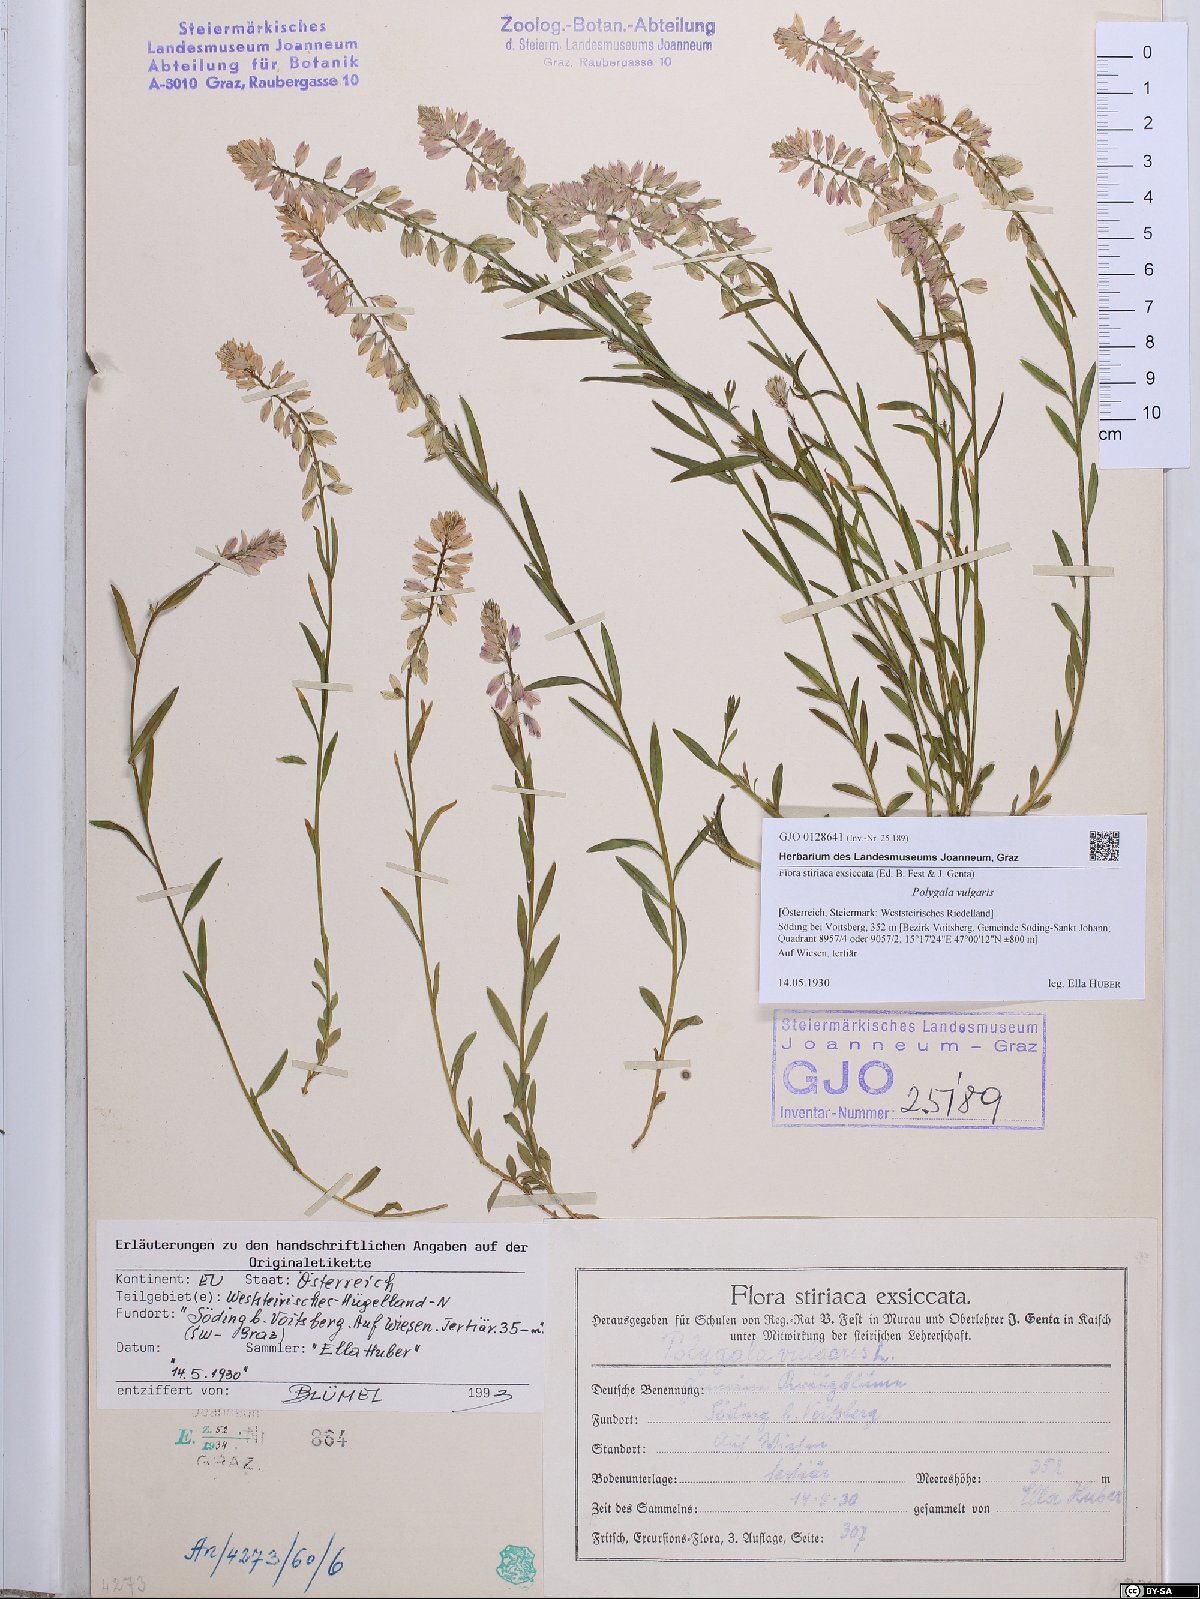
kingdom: Plantae
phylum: Tracheophyta
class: Magnoliopsida
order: Fabales
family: Polygalaceae
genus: Polygala
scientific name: Polygala vulgaris
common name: Common milkwort
